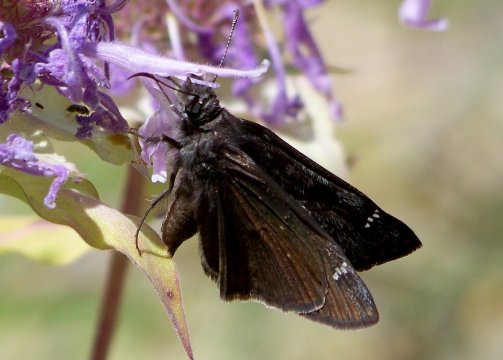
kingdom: Animalia
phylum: Arthropoda
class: Insecta
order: Lepidoptera
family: Hesperiidae
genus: Erynnis
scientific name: Erynnis telemachus
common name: Rocky Mountain Duskywing
